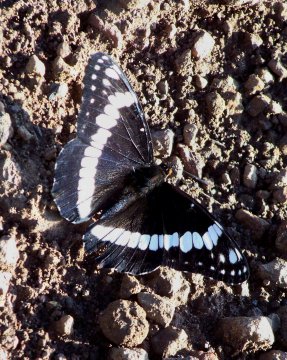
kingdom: Animalia
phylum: Arthropoda
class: Insecta
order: Lepidoptera
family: Nymphalidae
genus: Limenitis
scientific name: Limenitis weidemeyerii
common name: Weidemeyer's Admiral
